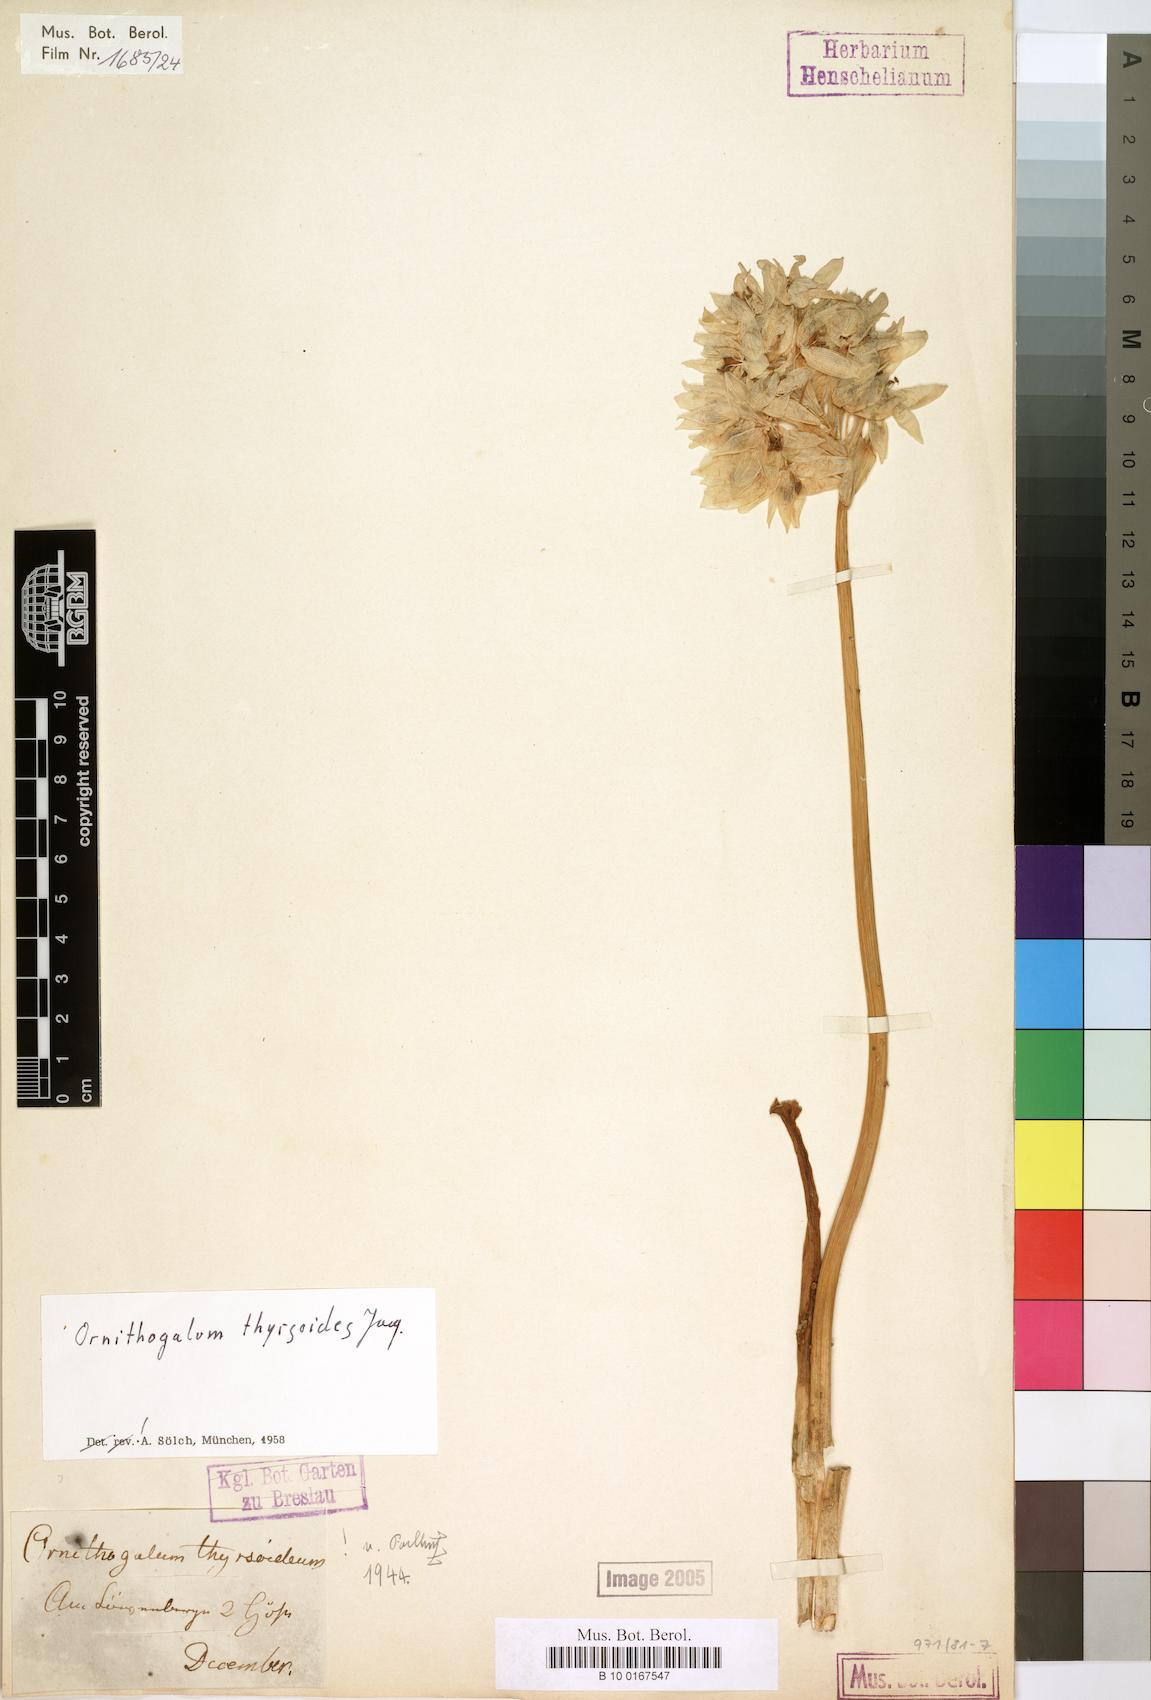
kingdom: Plantae
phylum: Tracheophyta
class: Liliopsida
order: Asparagales
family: Asparagaceae
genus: Ornithogalum
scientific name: Ornithogalum thyrsoides
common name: Chincherinchee
